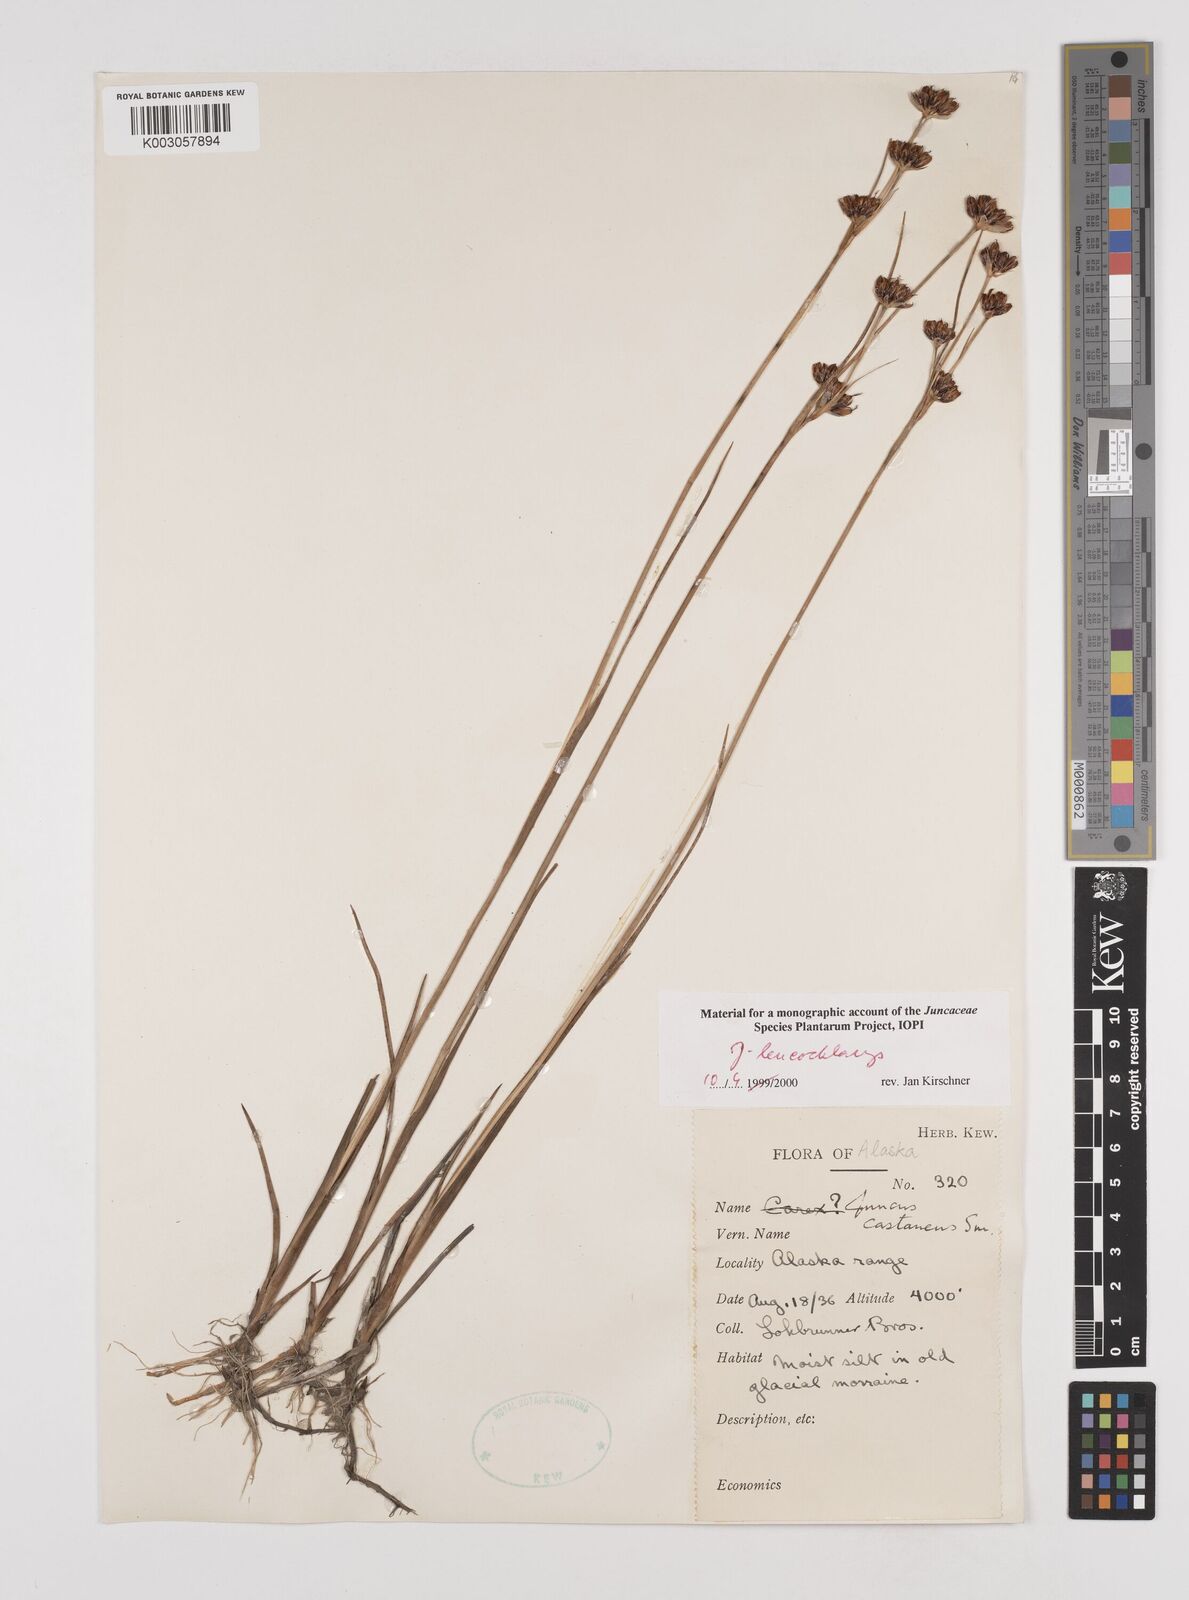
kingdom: Plantae
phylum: Tracheophyta
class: Liliopsida
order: Poales
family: Juncaceae
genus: Juncus
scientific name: Juncus castaneus
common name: Chestnut rush
